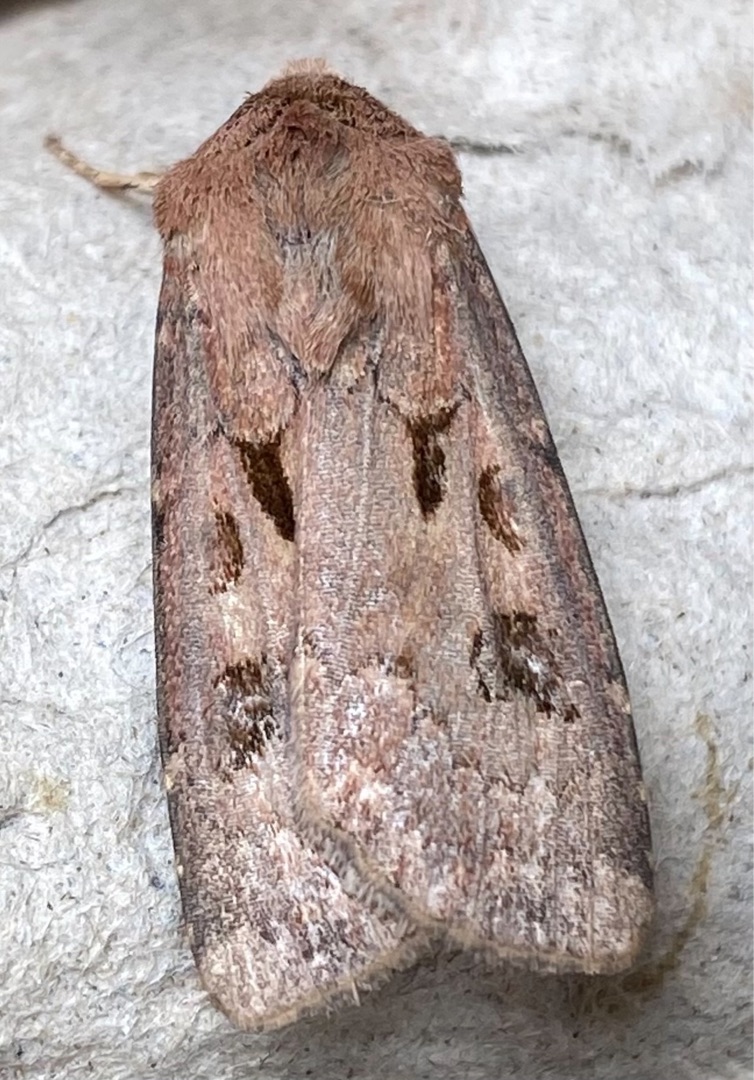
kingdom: Animalia
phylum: Arthropoda
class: Insecta
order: Lepidoptera
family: Noctuidae
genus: Agrotis
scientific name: Agrotis exclamationis
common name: Udråbstegnsugle
